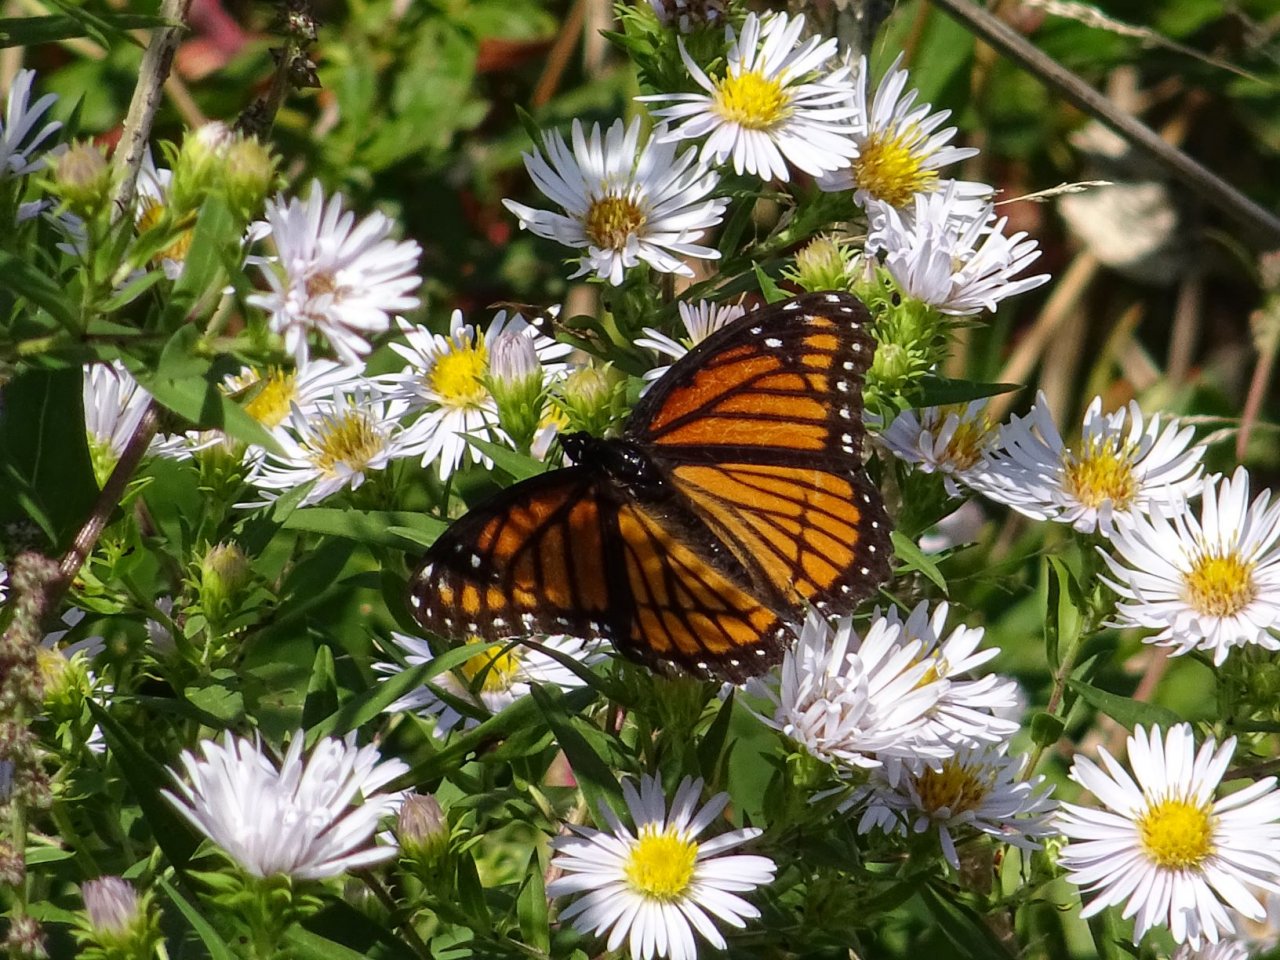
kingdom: Animalia
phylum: Arthropoda
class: Insecta
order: Lepidoptera
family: Nymphalidae
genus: Limenitis
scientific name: Limenitis archippus
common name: Viceroy
